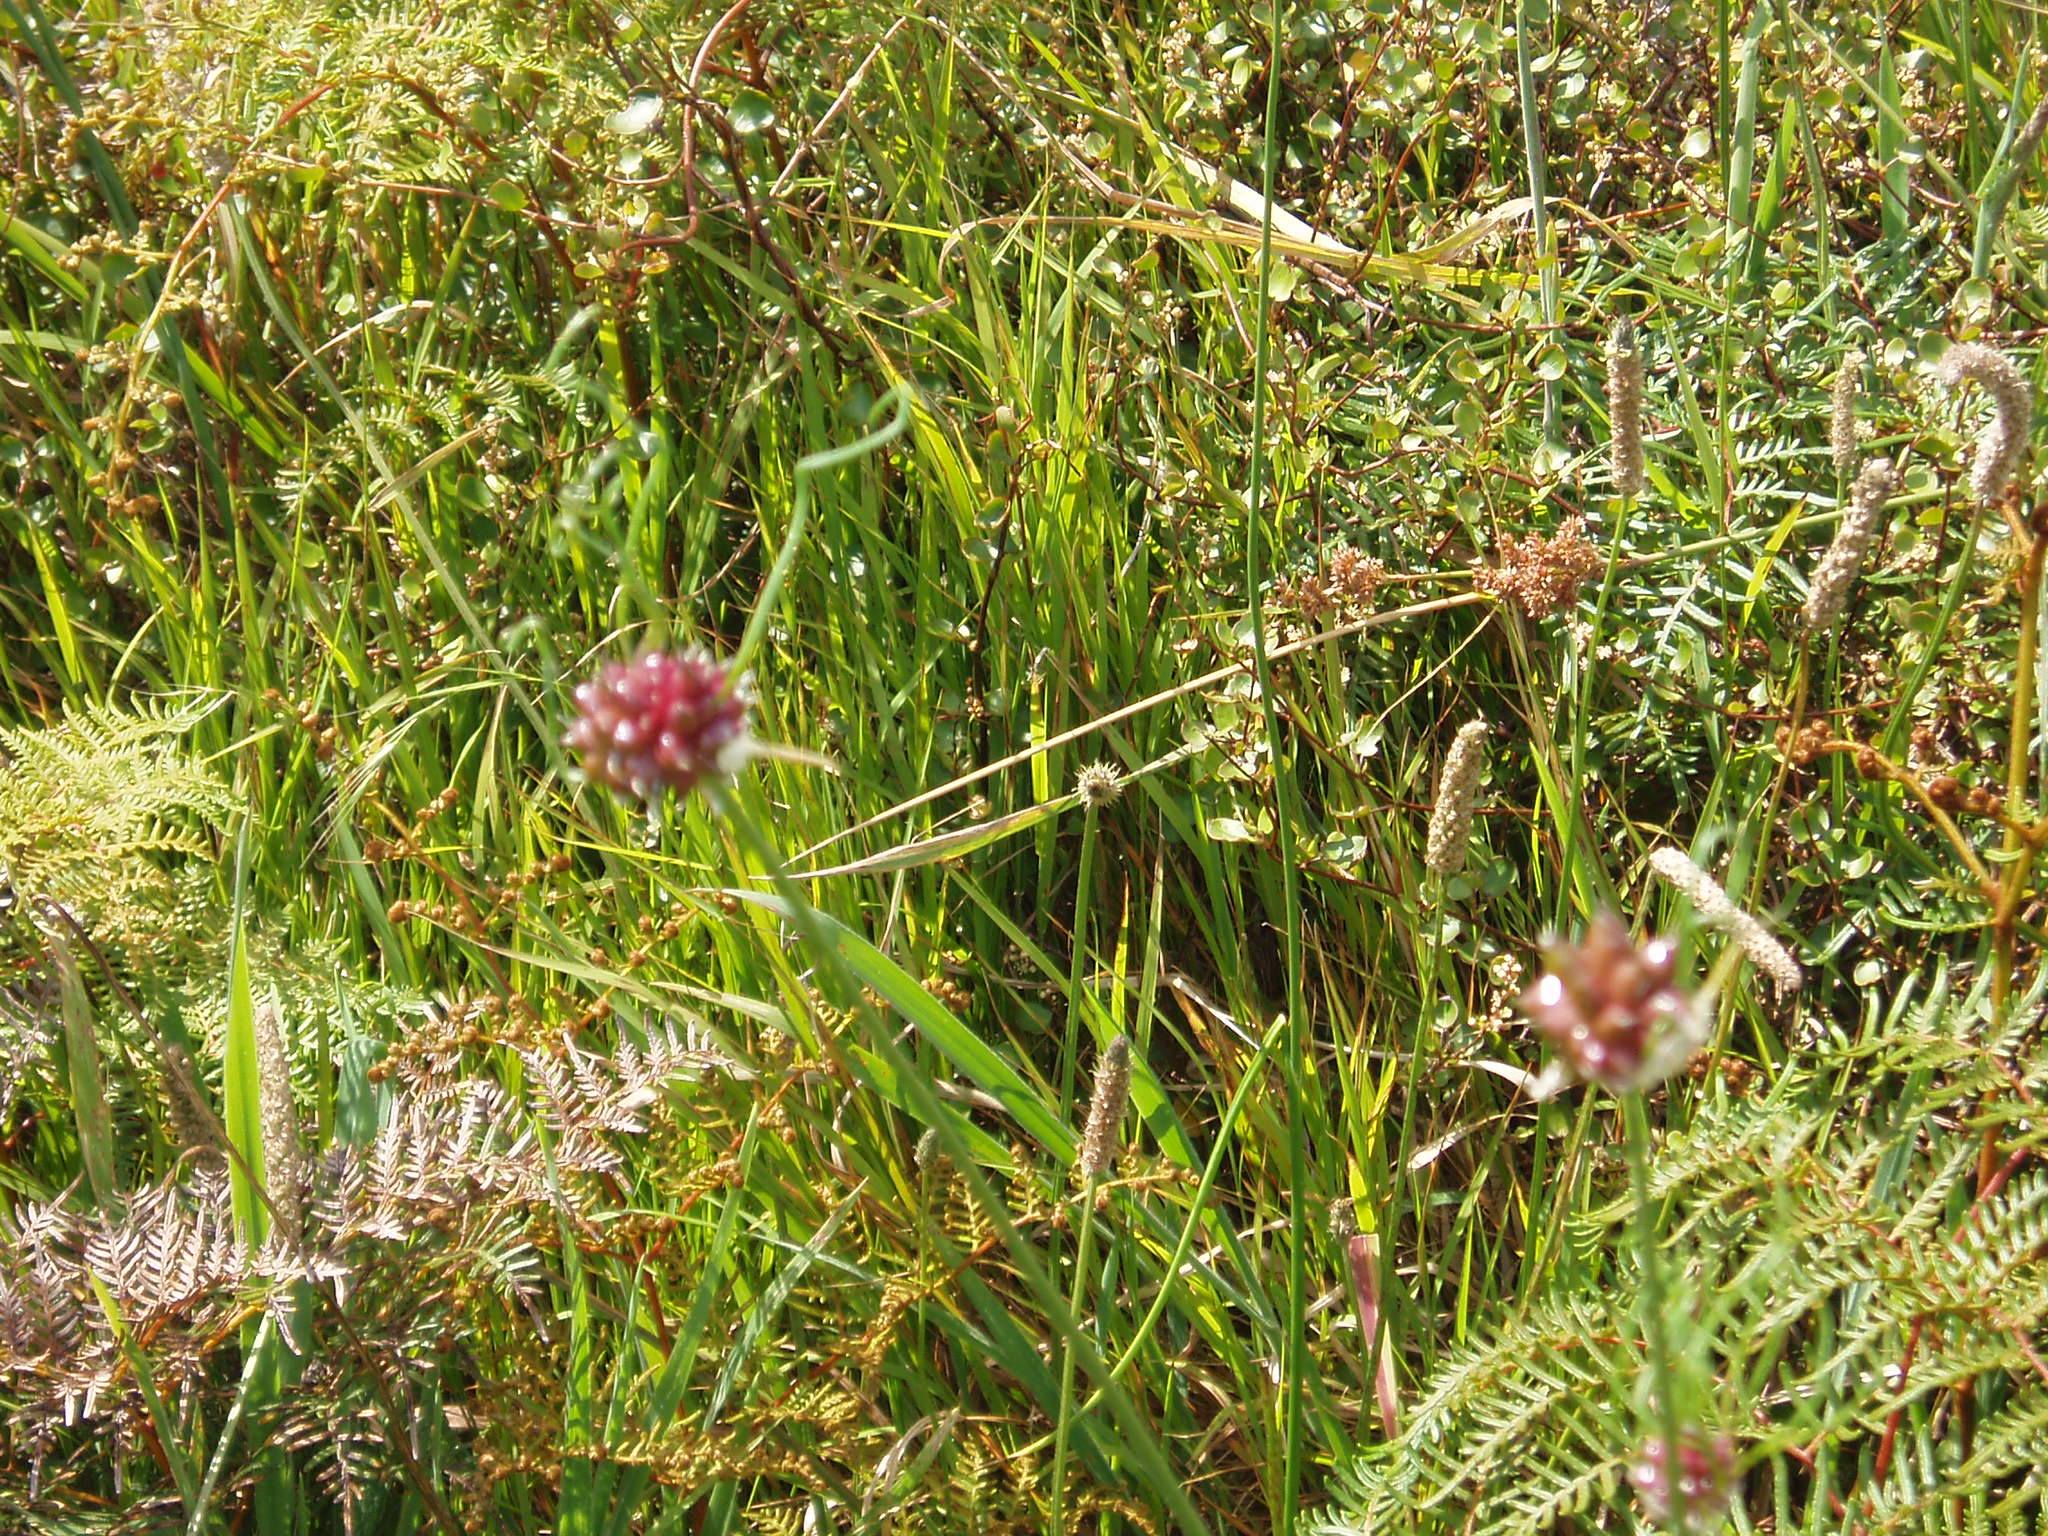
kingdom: Plantae
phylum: Tracheophyta
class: Liliopsida
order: Asparagales
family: Amaryllidaceae
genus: Allium
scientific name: Allium vineale
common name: Crow garlic
